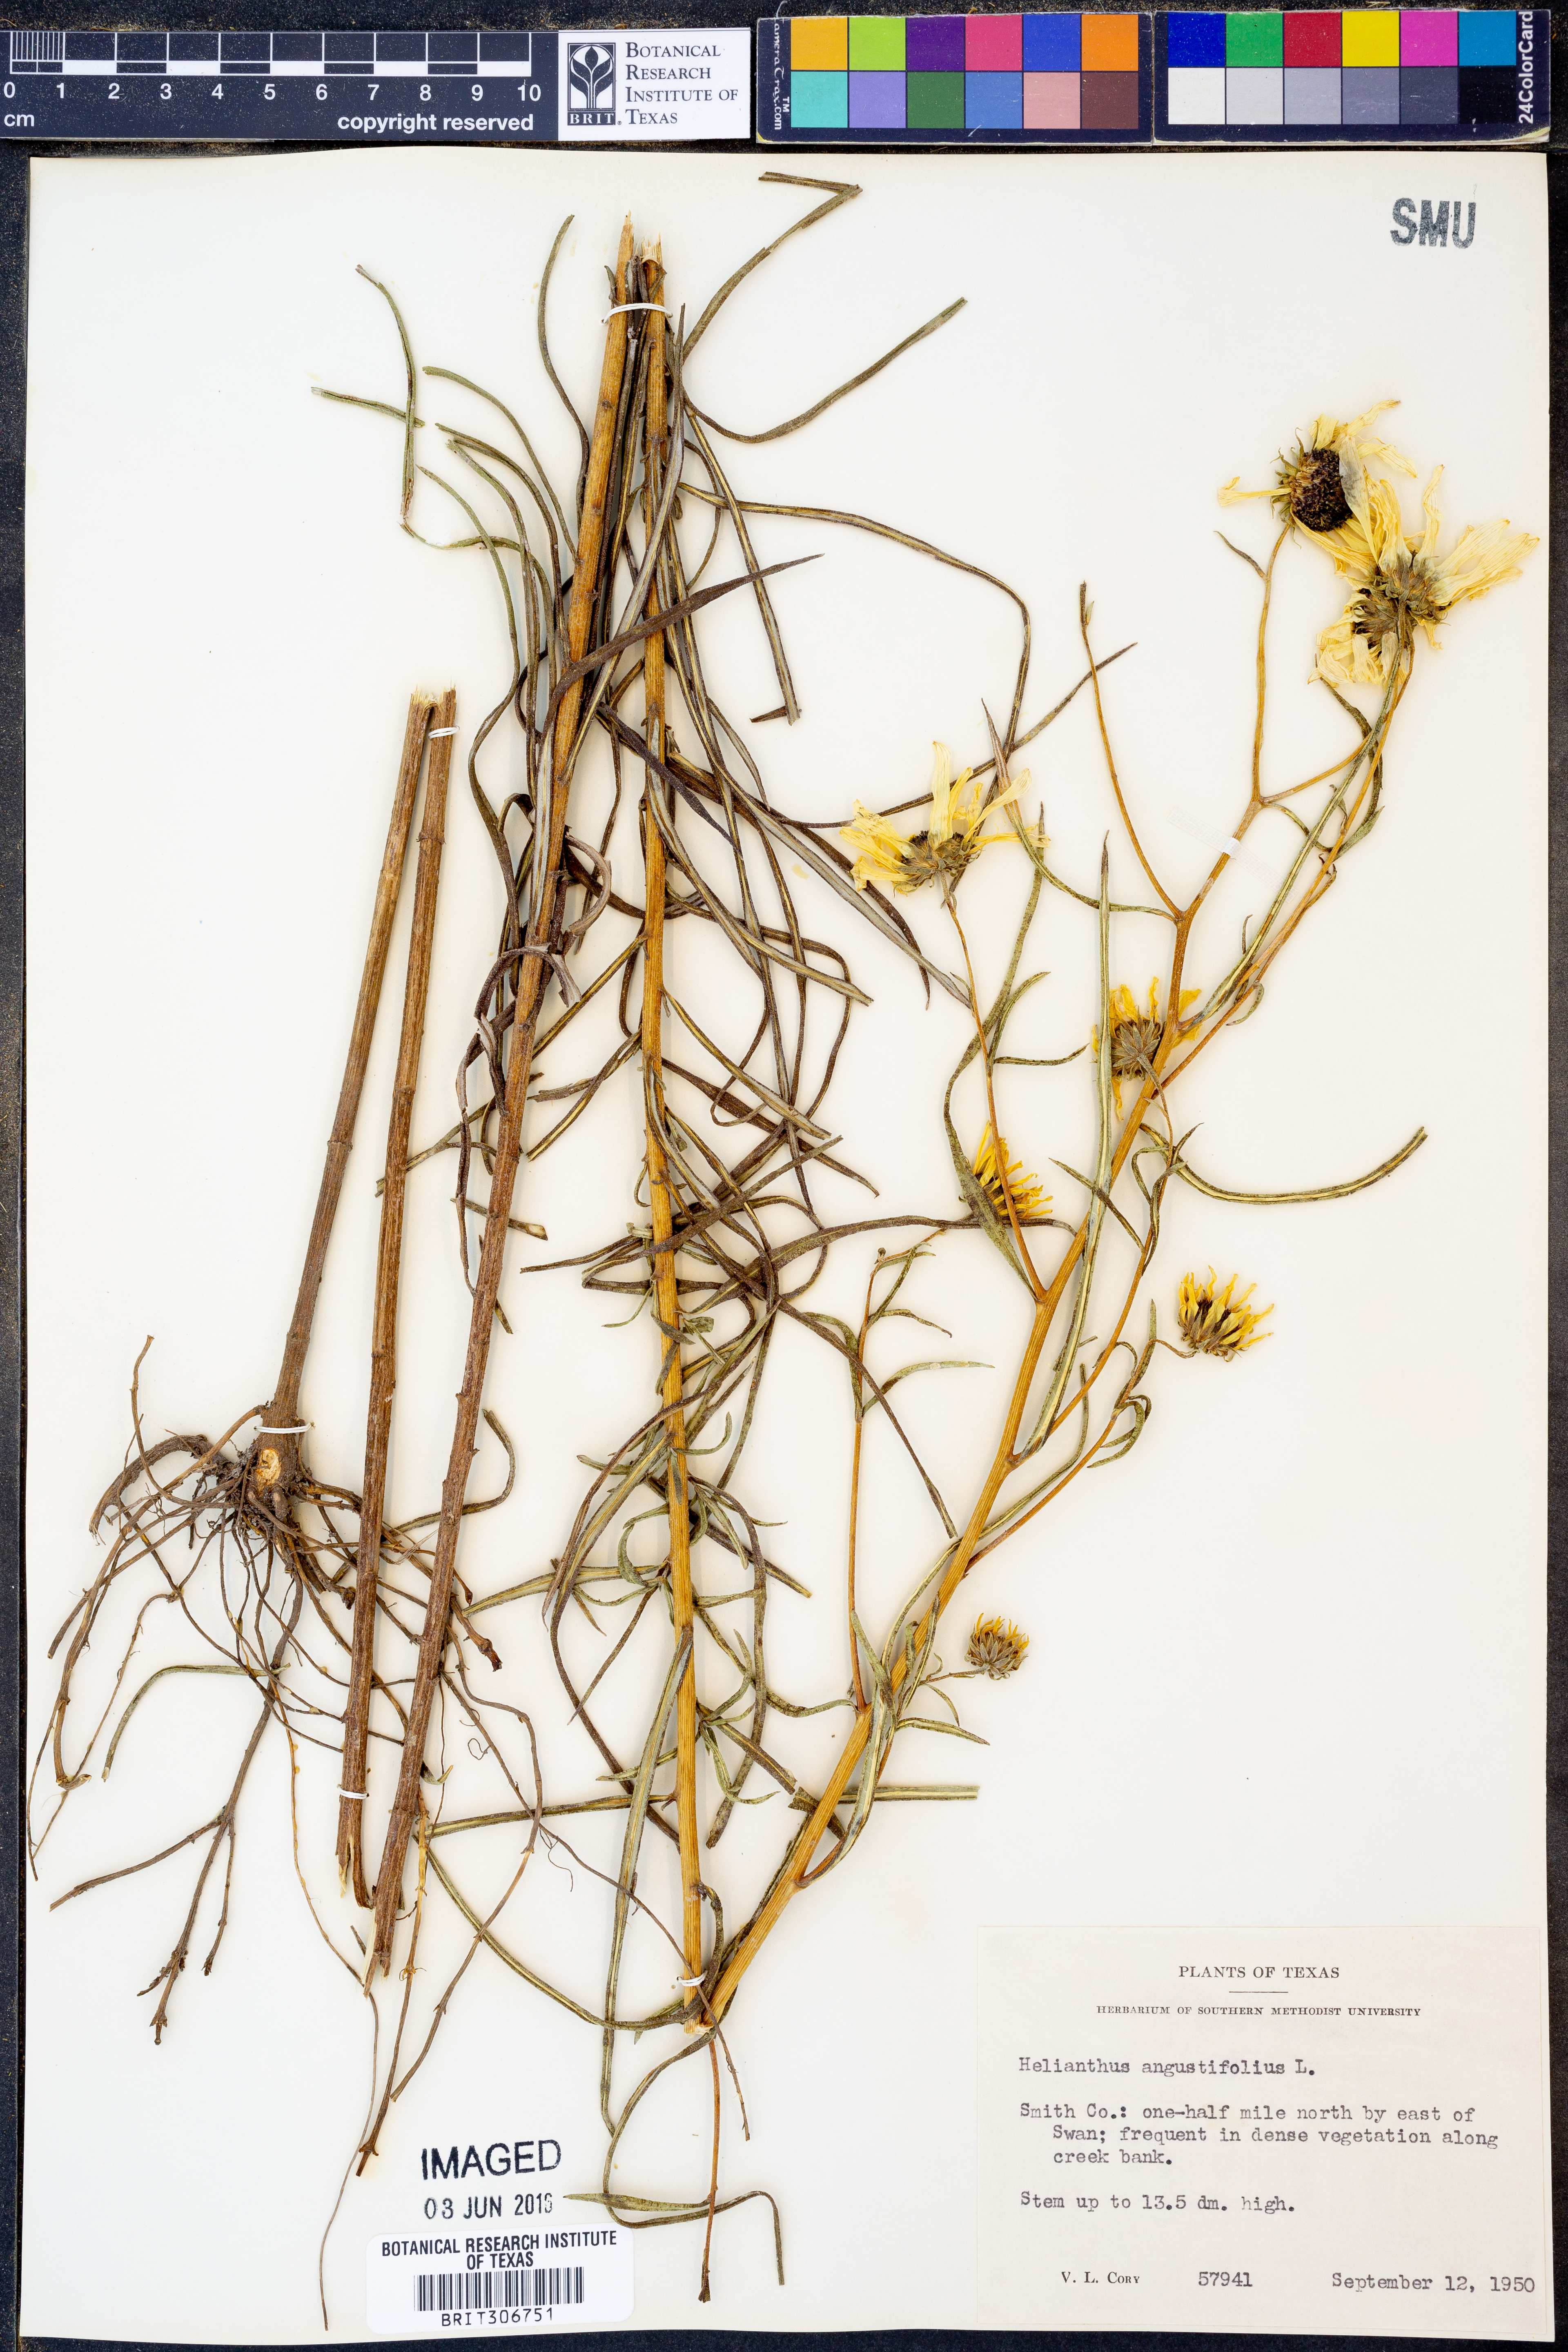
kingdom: Plantae
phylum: Tracheophyta
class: Magnoliopsida
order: Asterales
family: Asteraceae
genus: Helianthus
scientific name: Helianthus angustifolius
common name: Swamp sunflower
